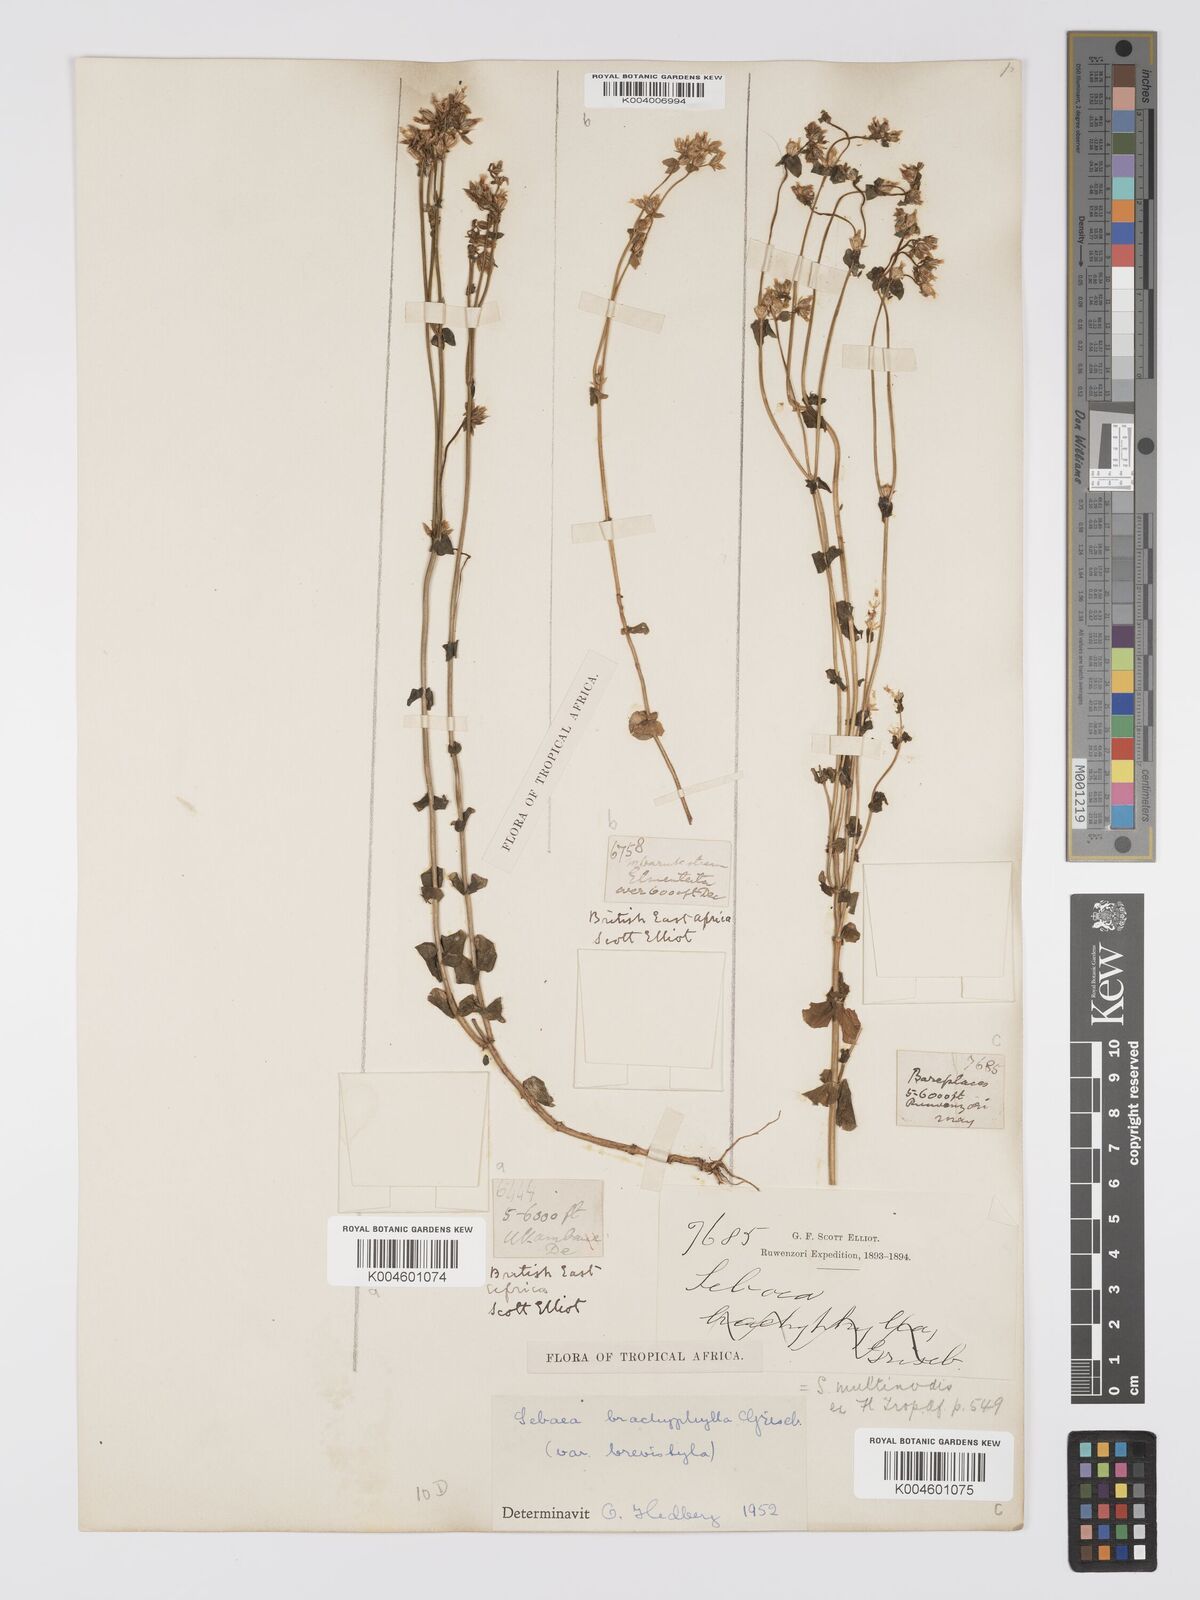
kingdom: Plantae
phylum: Tracheophyta
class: Magnoliopsida
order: Gentianales
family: Gentianaceae
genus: Sebaea
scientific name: Sebaea brachyphylla
